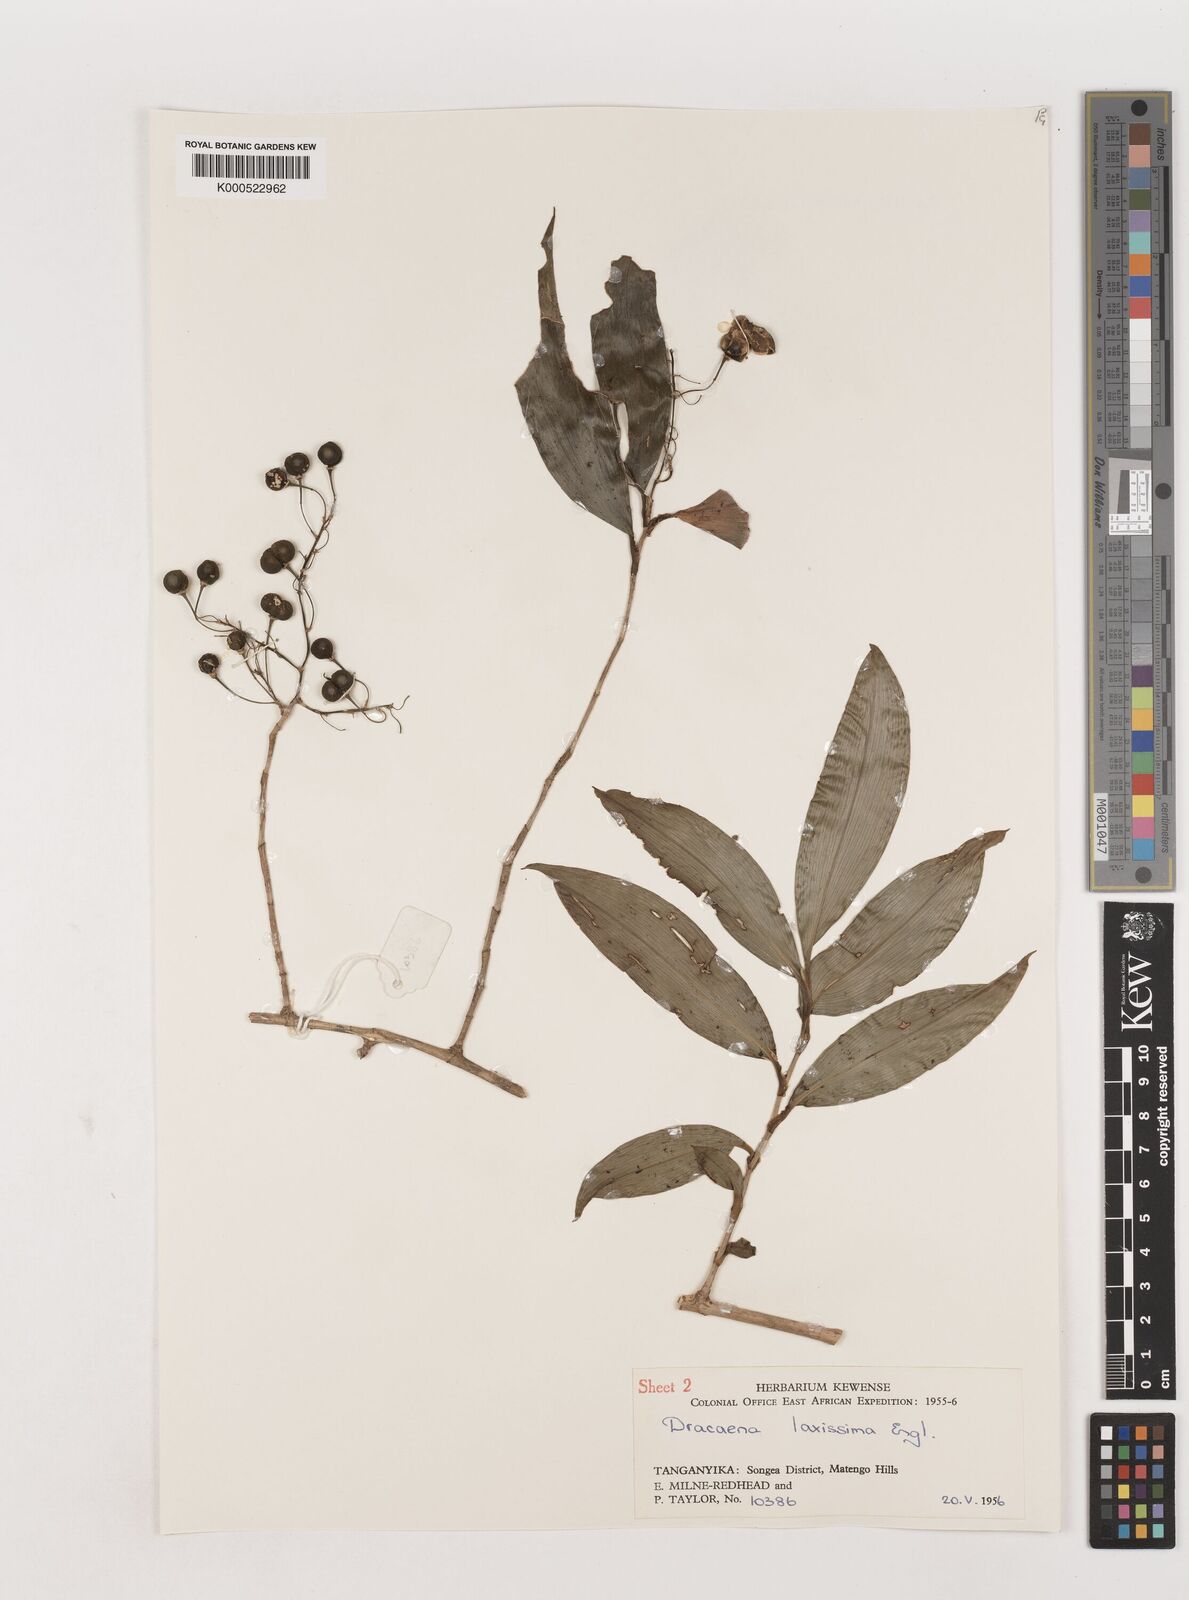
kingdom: Plantae
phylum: Tracheophyta
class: Liliopsida
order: Asparagales
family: Asparagaceae
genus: Dracaena
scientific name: Dracaena laxissima
